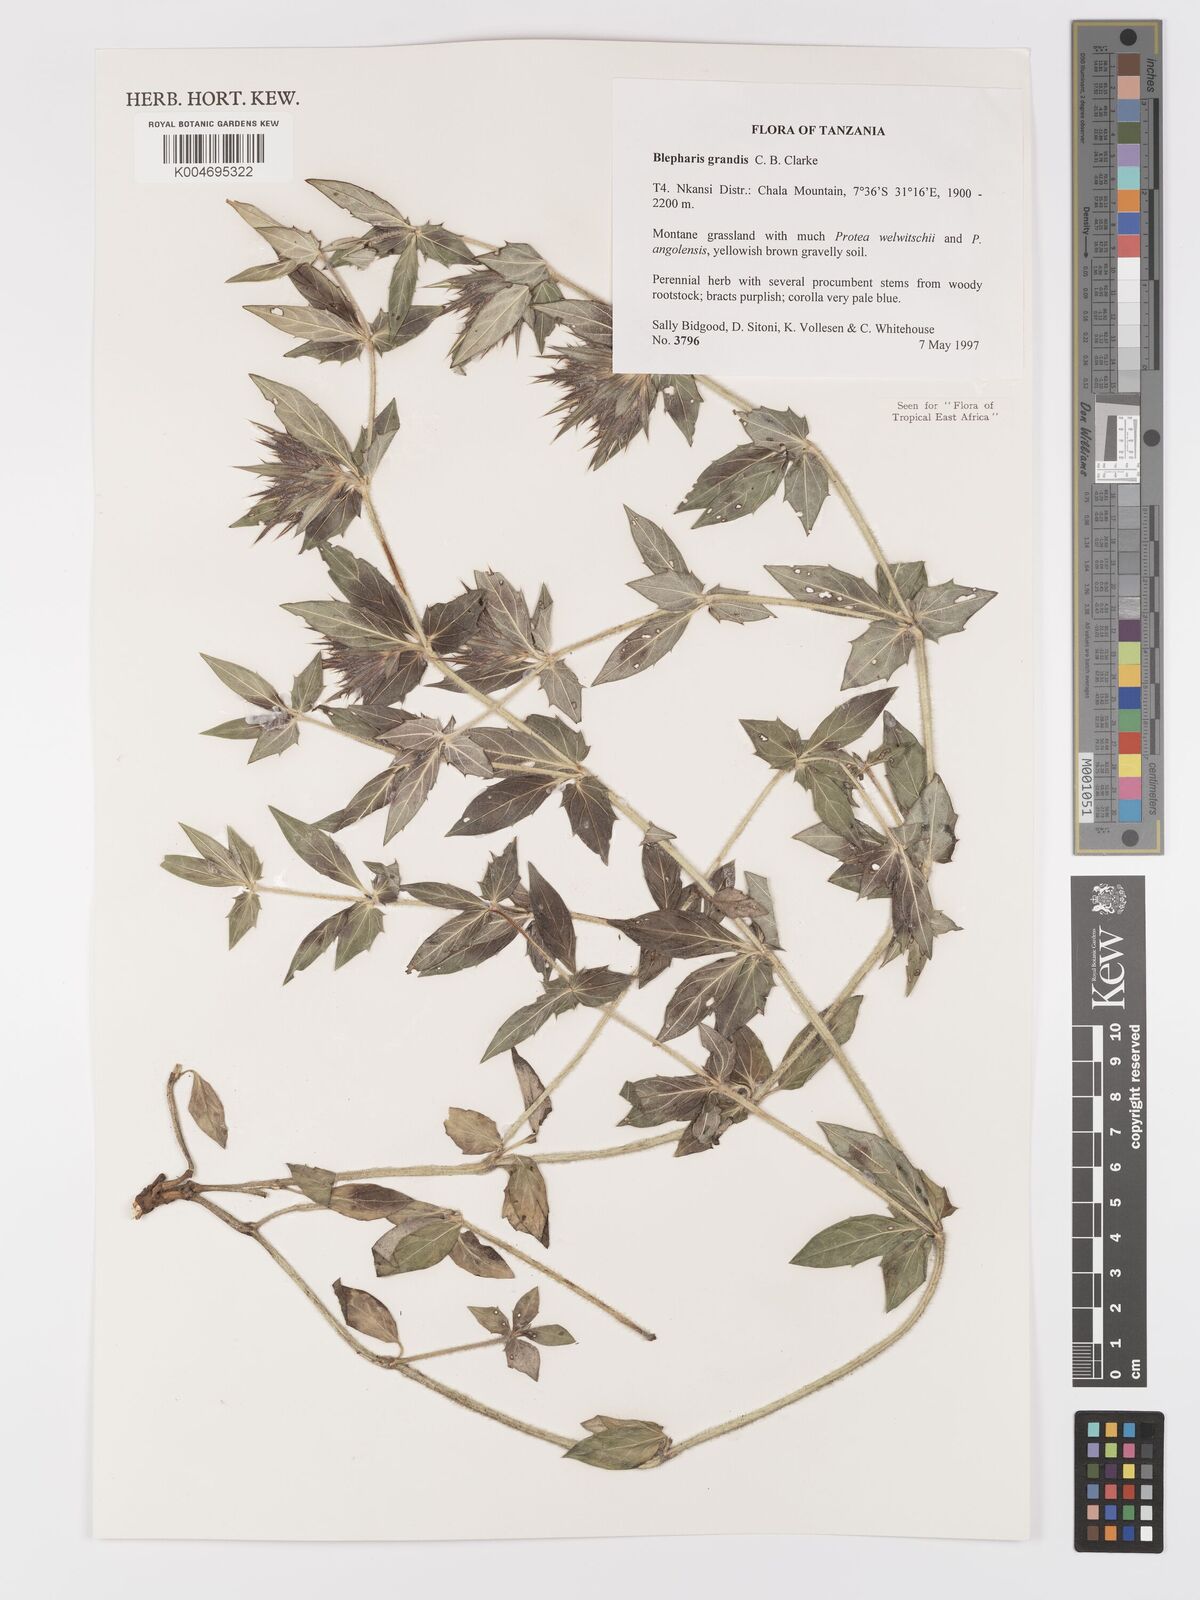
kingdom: Plantae
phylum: Tracheophyta
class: Magnoliopsida
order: Lamiales
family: Acanthaceae
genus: Blepharis
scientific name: Blepharis grandis
